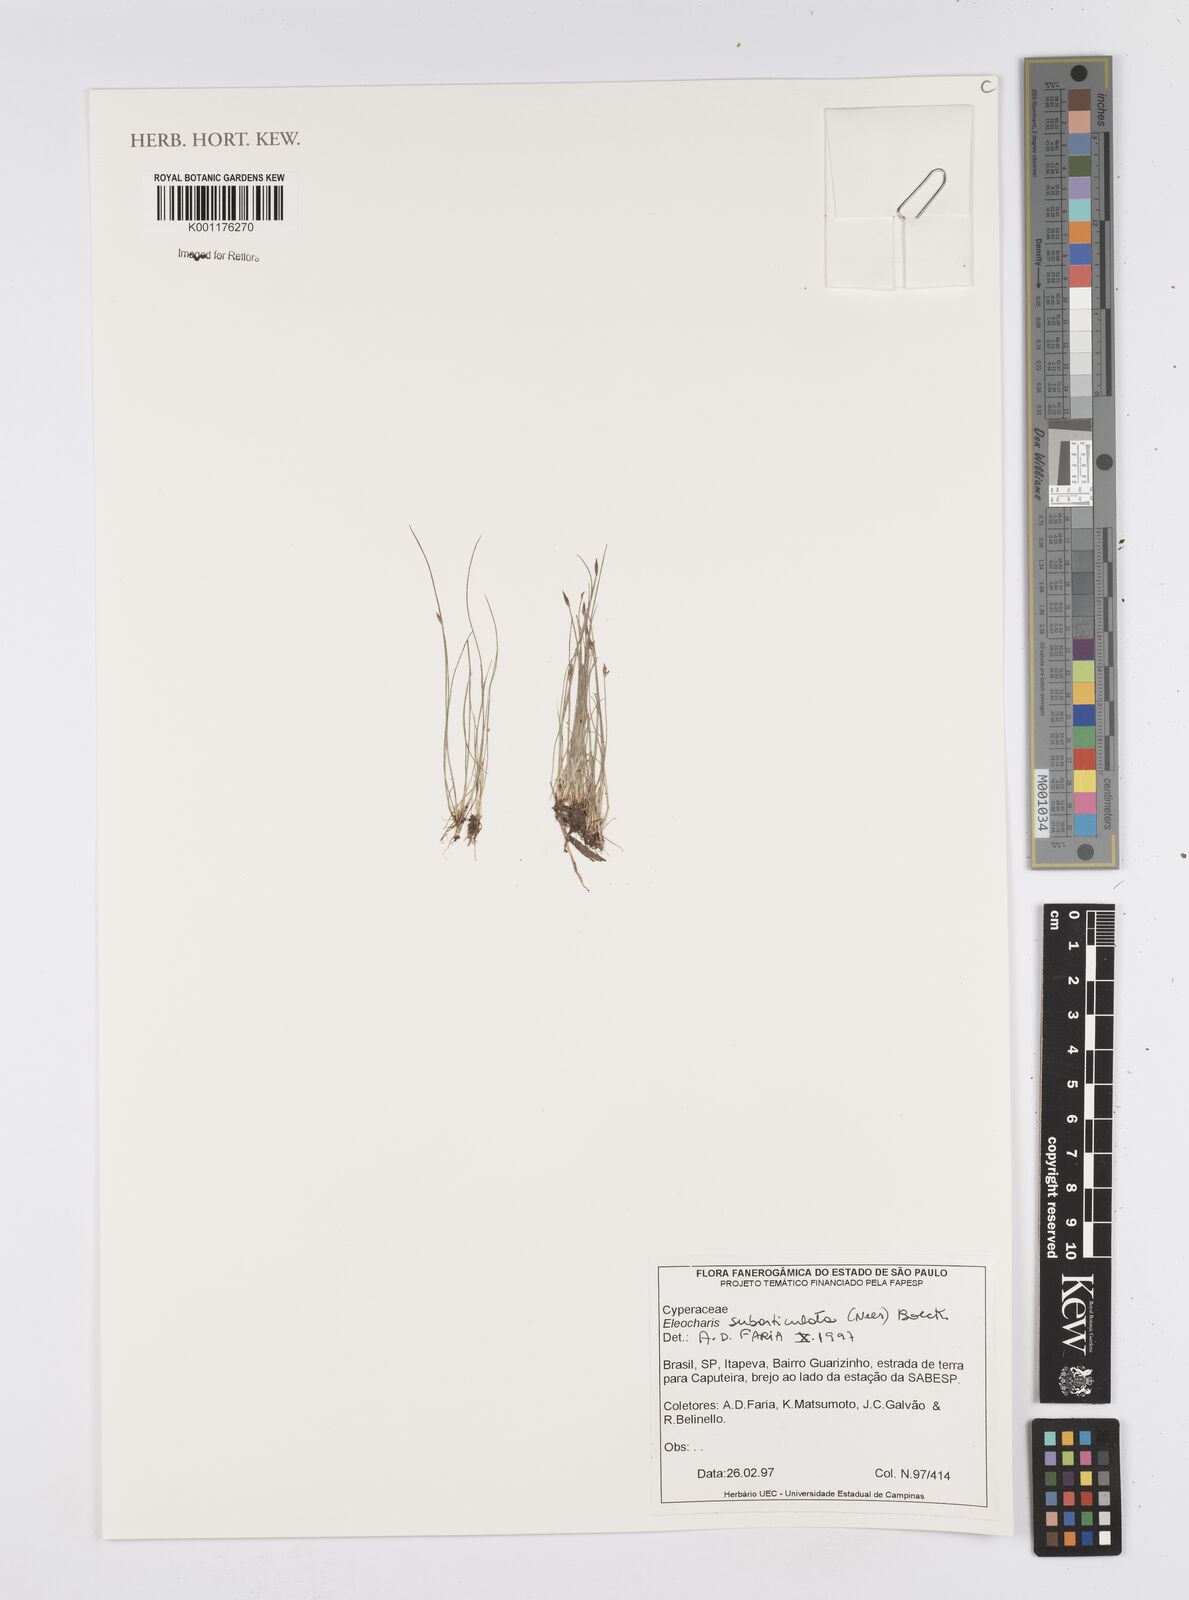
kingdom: Plantae
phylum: Tracheophyta
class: Liliopsida
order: Poales
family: Cyperaceae
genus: Eleocharis
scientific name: Eleocharis subarticulata
